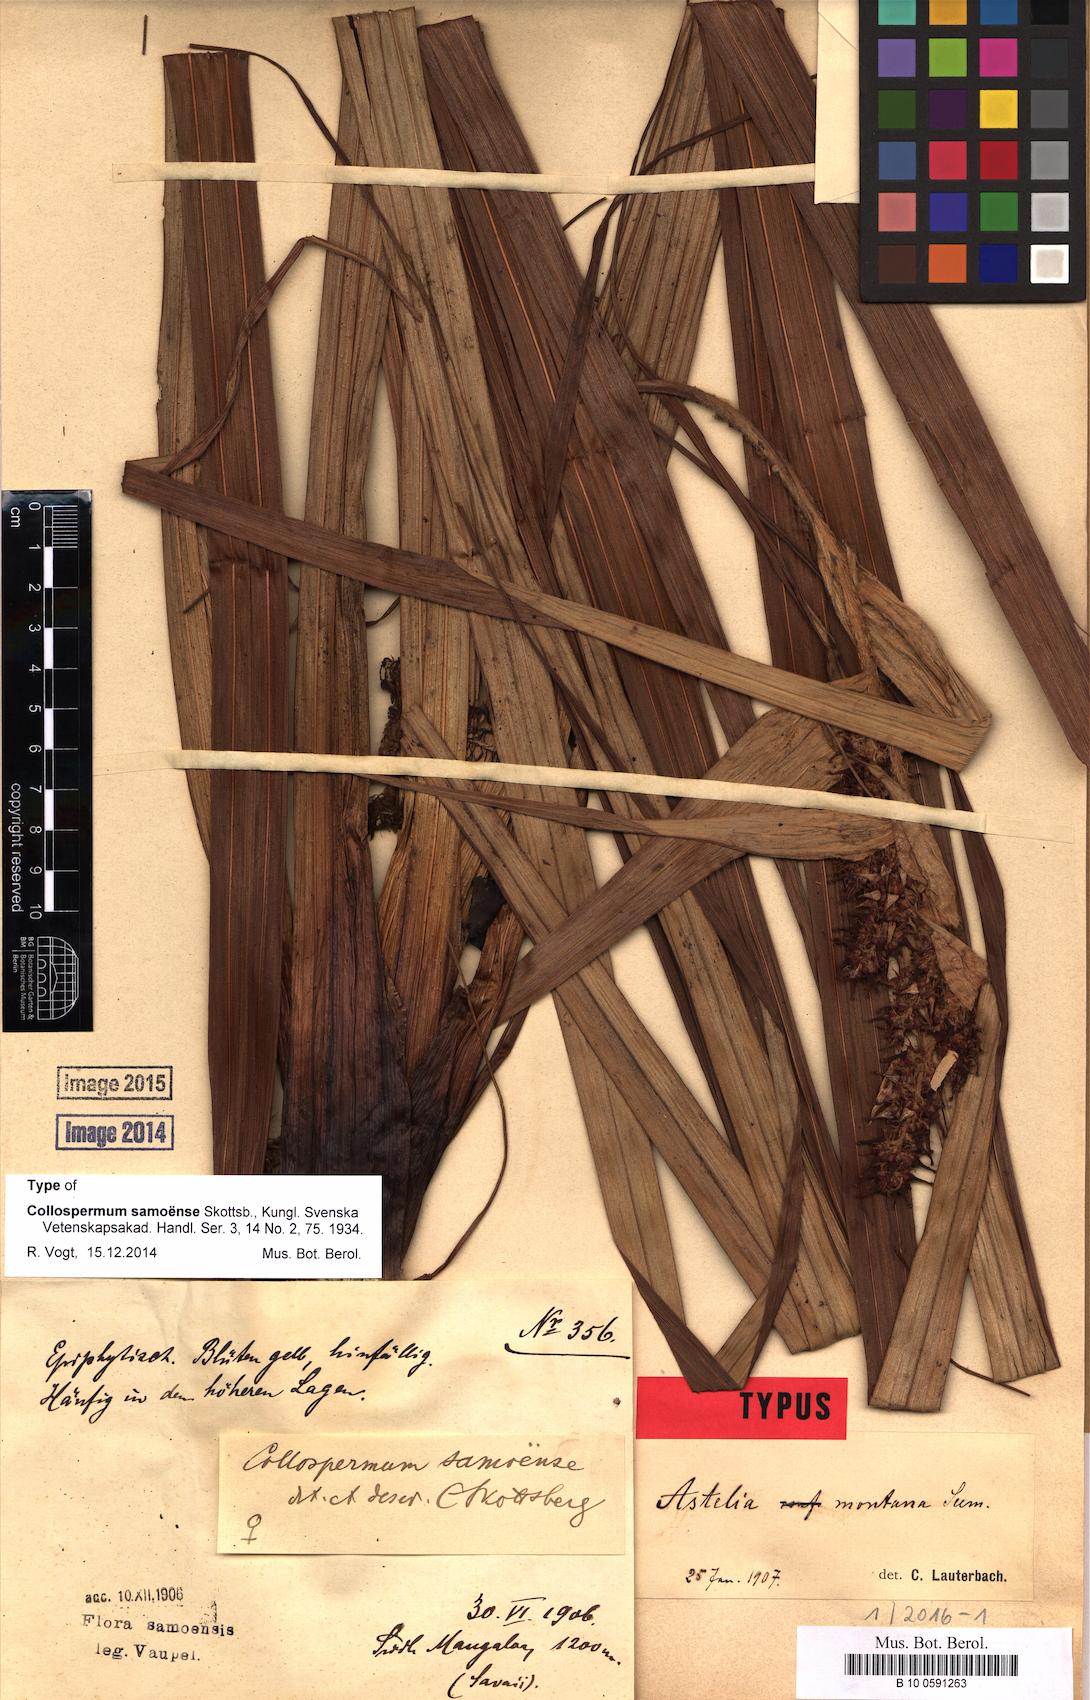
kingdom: Plantae
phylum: Tracheophyta
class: Liliopsida
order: Asparagales
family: Asteliaceae
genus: Astelia
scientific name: Astelia samoense
